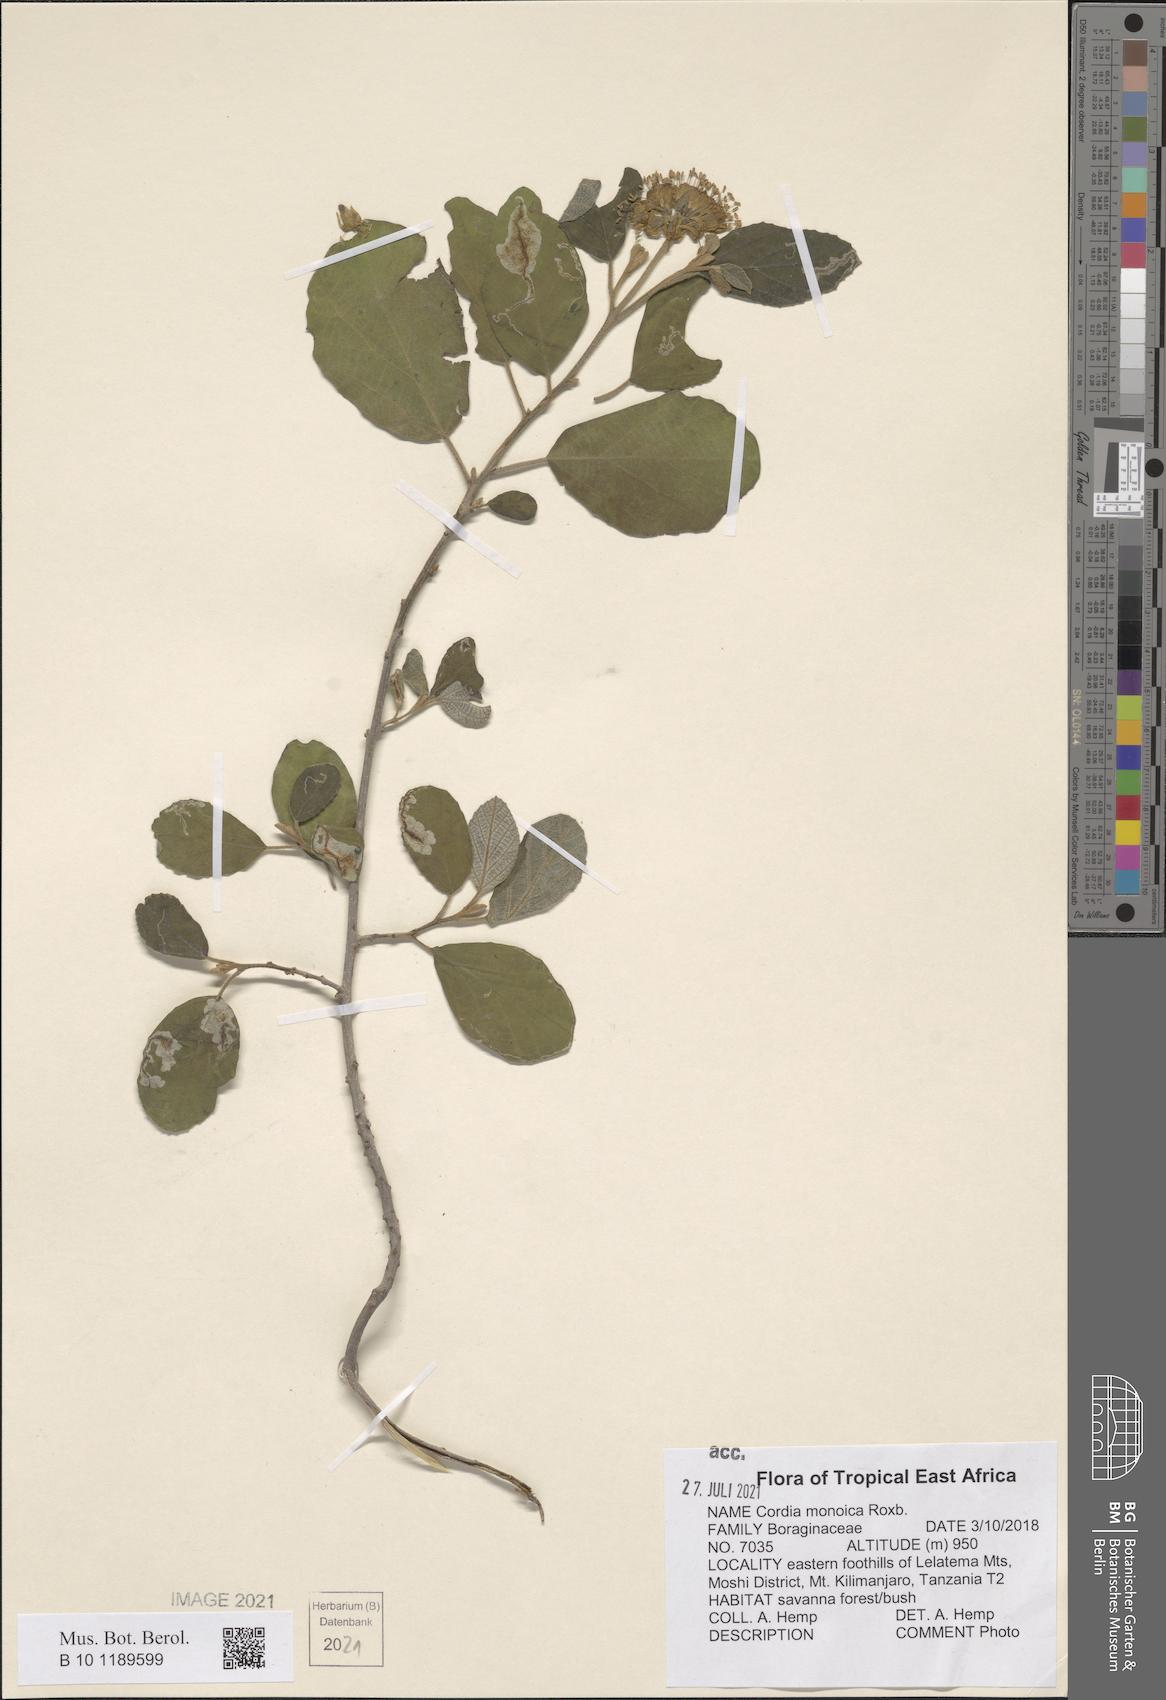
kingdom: Plantae
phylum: Tracheophyta
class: Magnoliopsida
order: Boraginales
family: Cordiaceae
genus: Cordia
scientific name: Cordia monoica
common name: Snot berry
